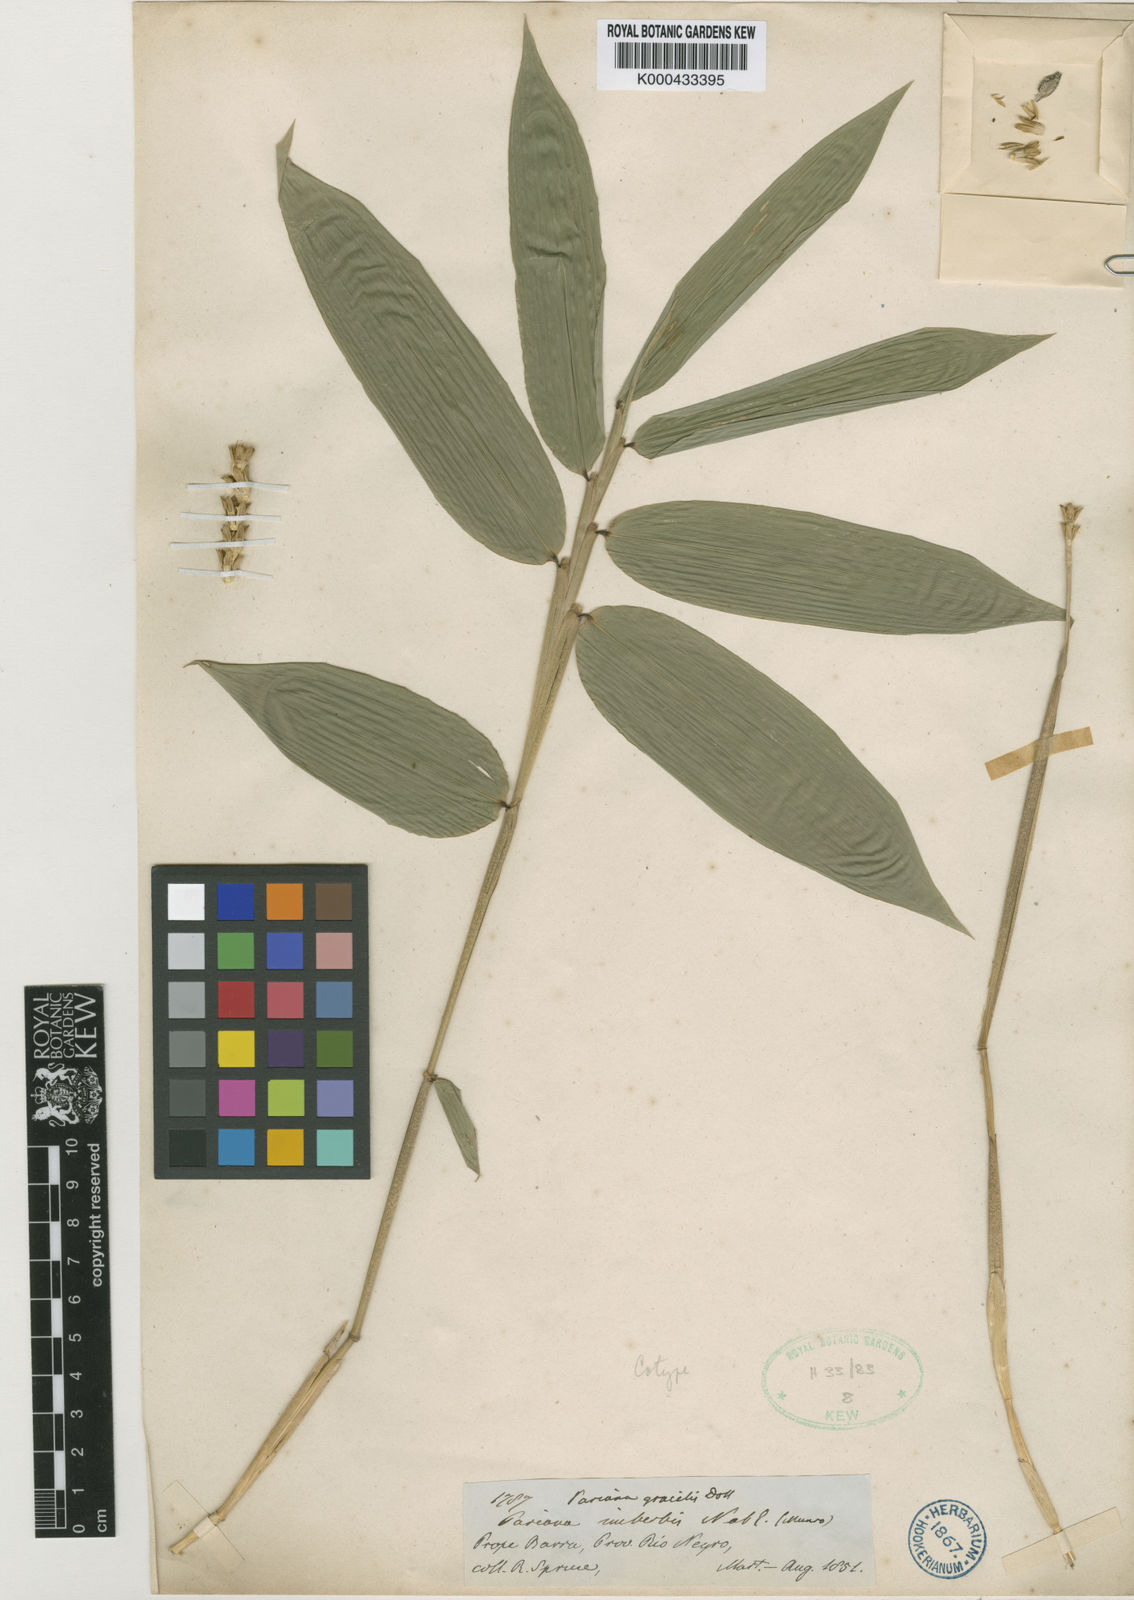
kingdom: Plantae
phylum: Tracheophyta
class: Liliopsida
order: Poales
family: Poaceae
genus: Pariana
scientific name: Pariana
